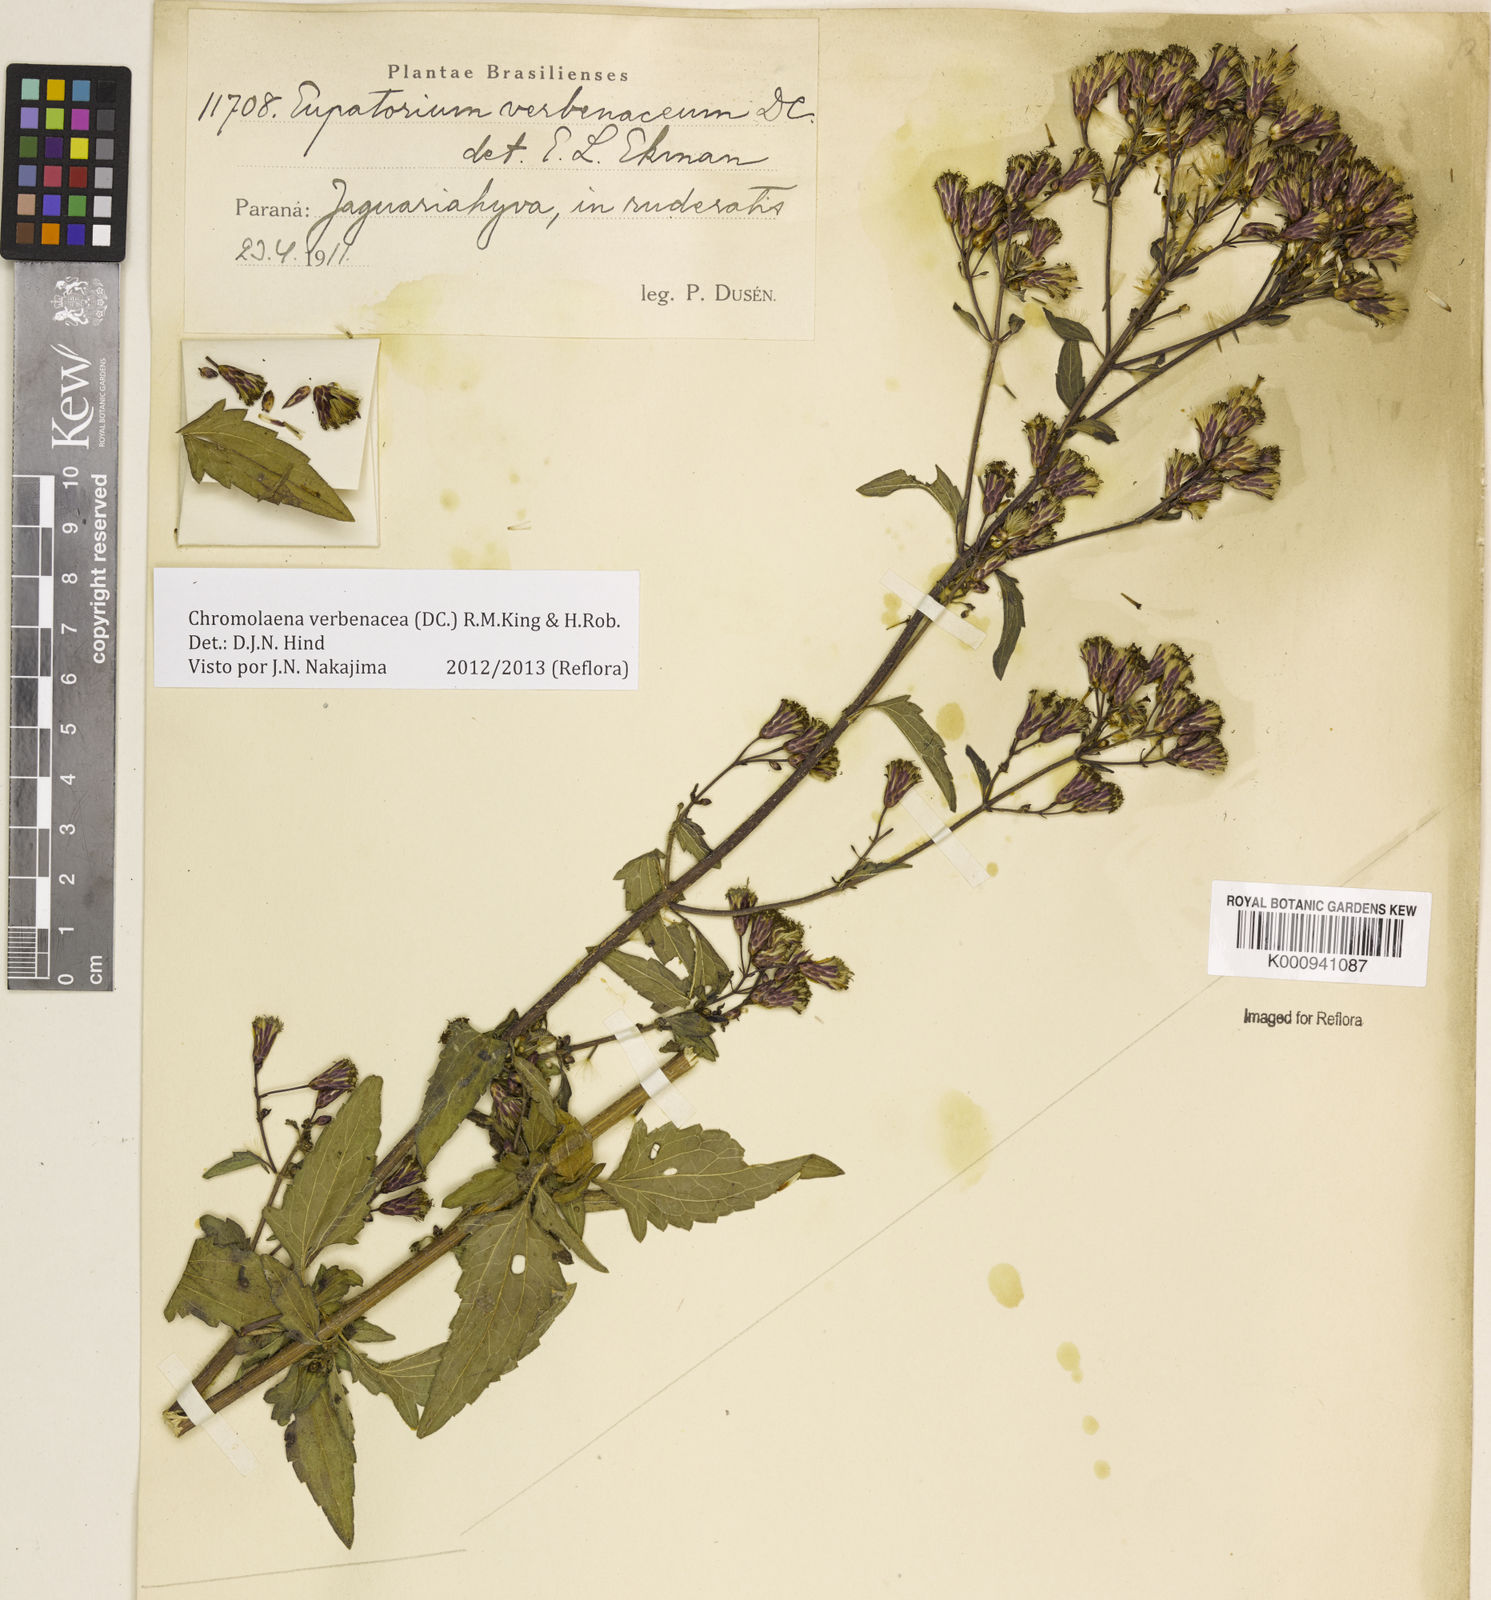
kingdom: Plantae
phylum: Tracheophyta
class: Magnoliopsida
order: Asterales
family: Asteraceae
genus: Chromolaena
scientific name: Chromolaena verbenacea
